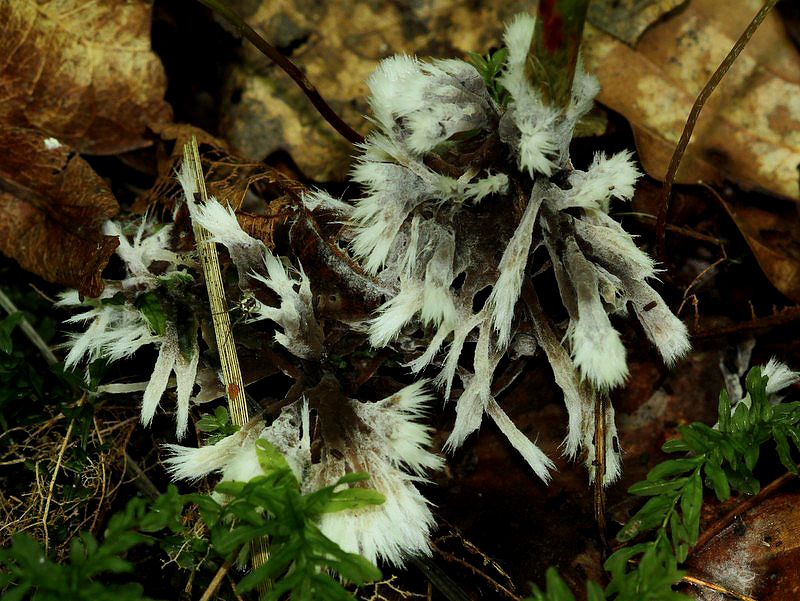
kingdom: Fungi
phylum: Basidiomycota
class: Agaricomycetes
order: Thelephorales
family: Thelephoraceae
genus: Thelephora
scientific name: Thelephora penicillata
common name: fladtrådt frynsesvamp
